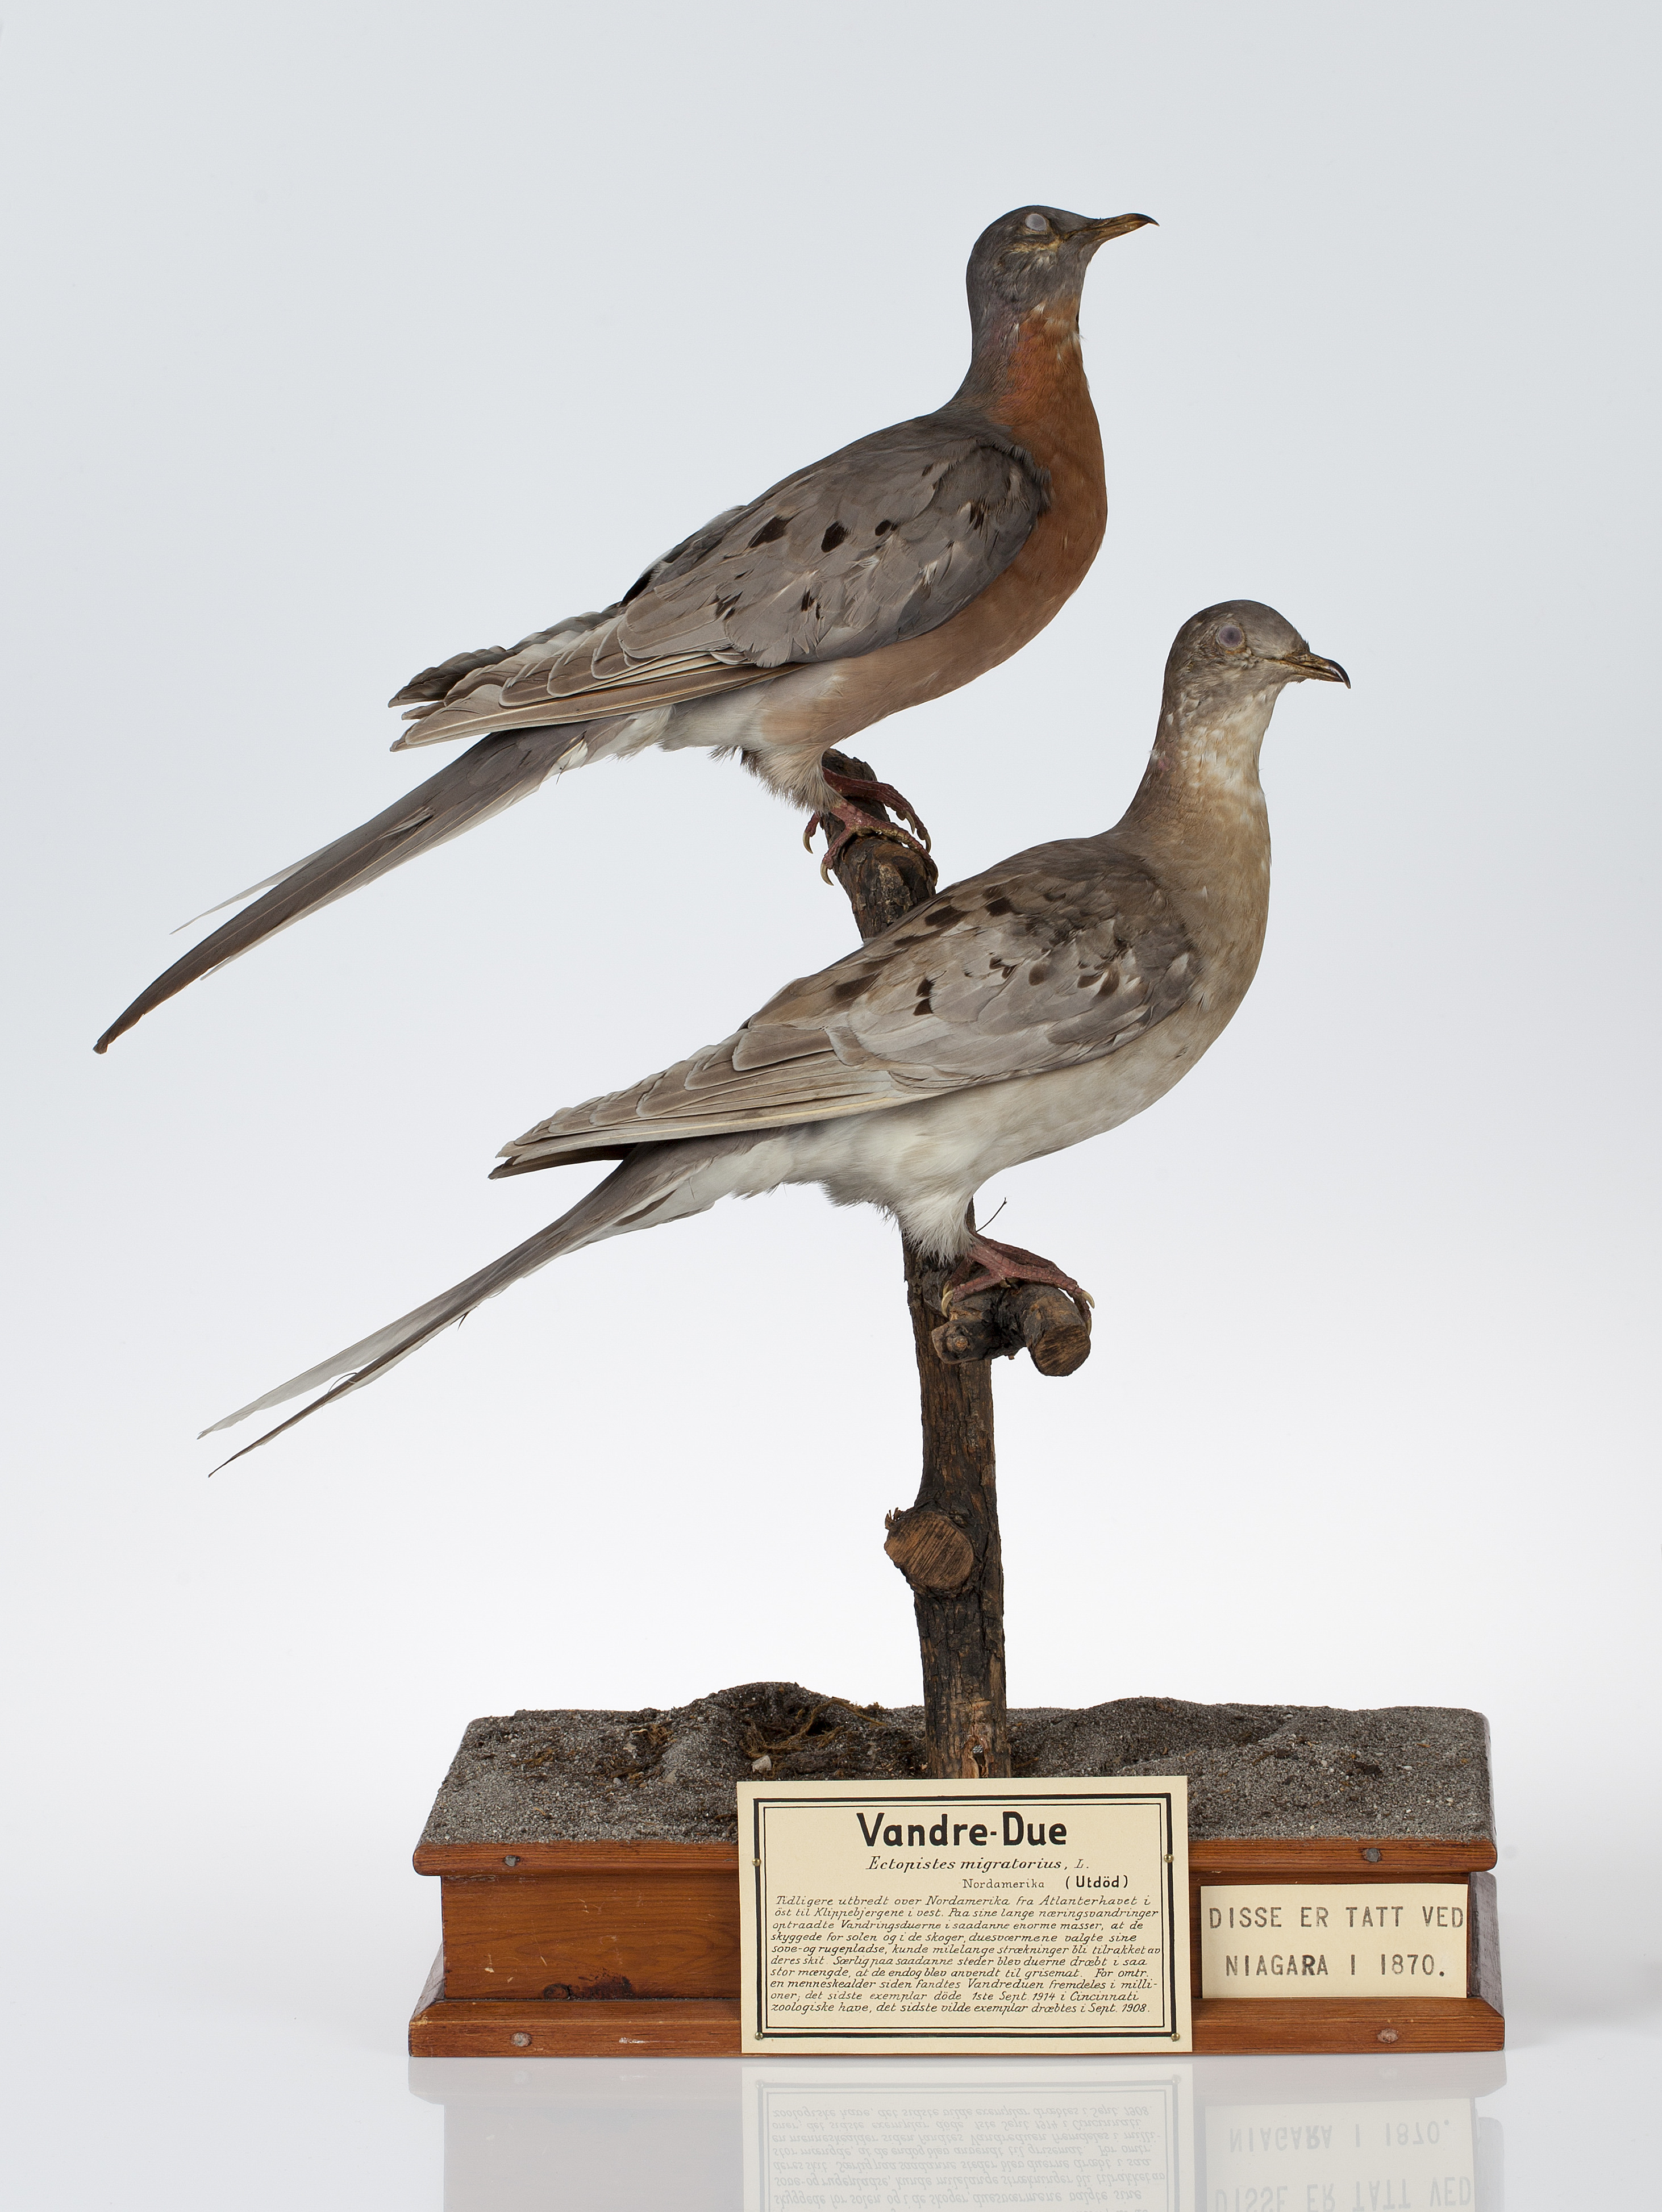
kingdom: Animalia
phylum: Chordata
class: Aves
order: Columbiformes
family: Columbidae
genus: Ectopistes
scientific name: Ectopistes migratorius
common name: Passenger pigeon
